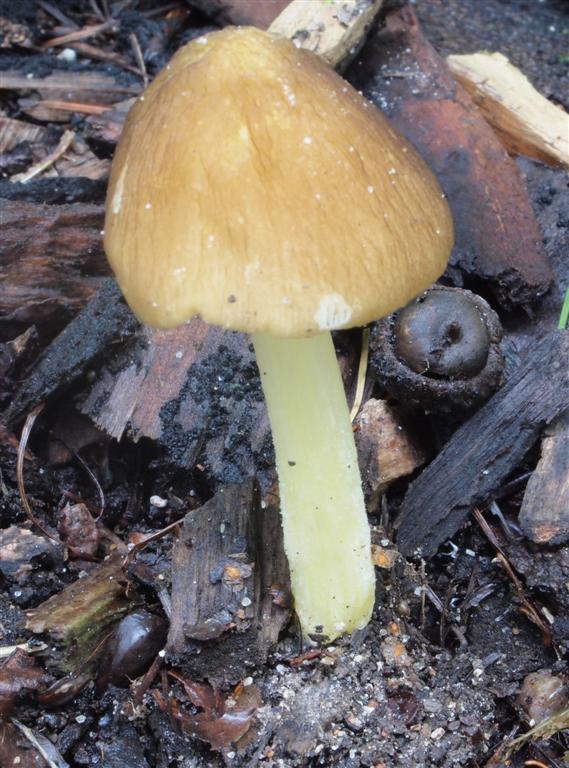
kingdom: Fungi
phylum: Basidiomycota
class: Agaricomycetes
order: Agaricales
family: Pluteaceae
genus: Pluteus
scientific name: Pluteus romellii
